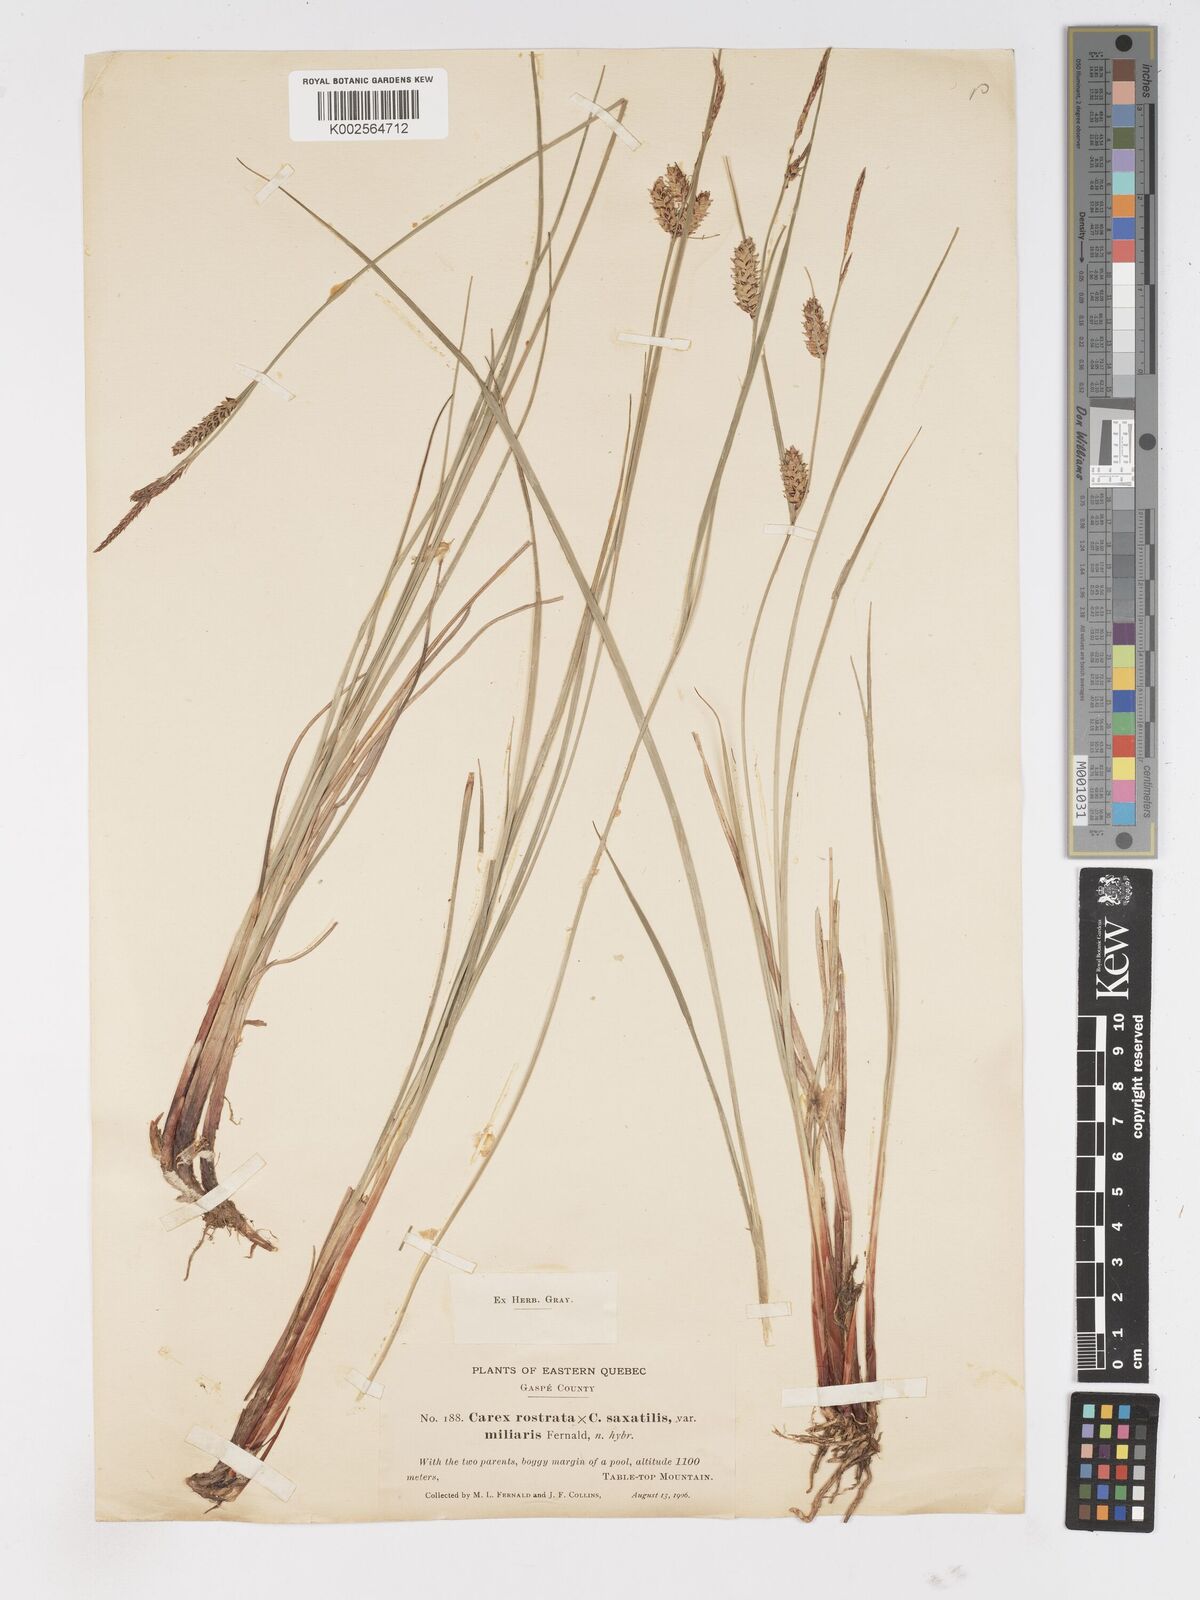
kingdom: Plantae
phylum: Tracheophyta
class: Liliopsida
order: Poales
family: Cyperaceae
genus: Carex
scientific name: Carex rostrata
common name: Bottle sedge
